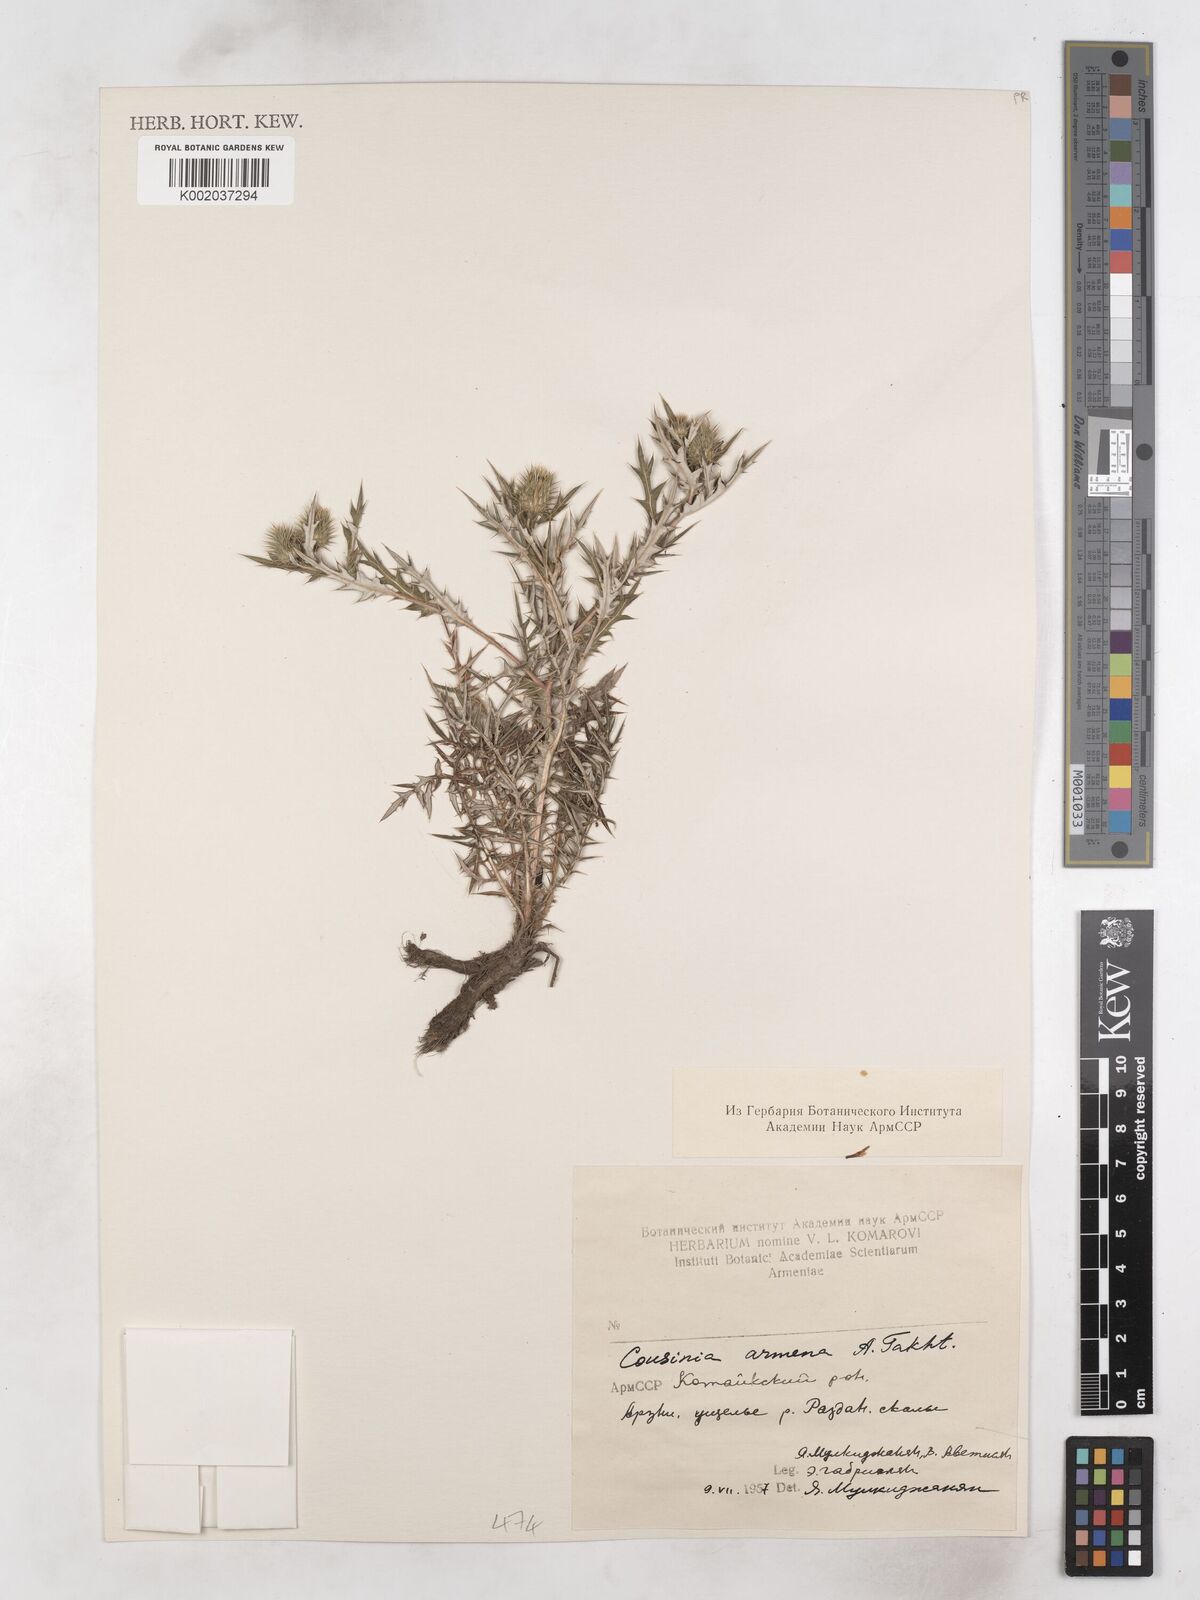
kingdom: Plantae
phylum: Tracheophyta
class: Magnoliopsida
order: Asterales
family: Asteraceae
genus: Cousinia
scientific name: Cousinia armena
